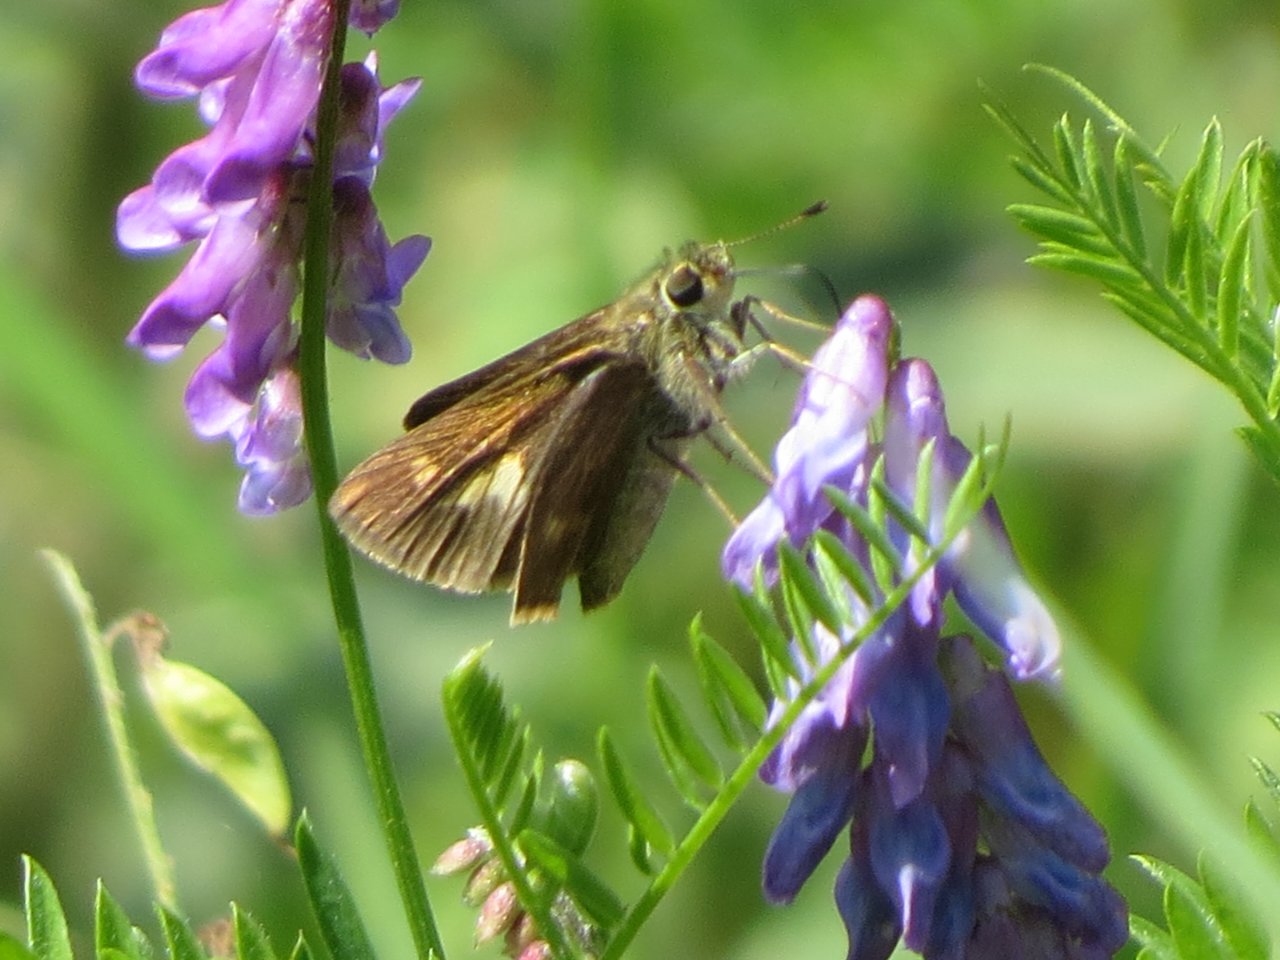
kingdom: Animalia
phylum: Arthropoda
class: Insecta
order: Lepidoptera
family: Hesperiidae
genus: Vernia
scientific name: Vernia verna
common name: Little Glassywing
